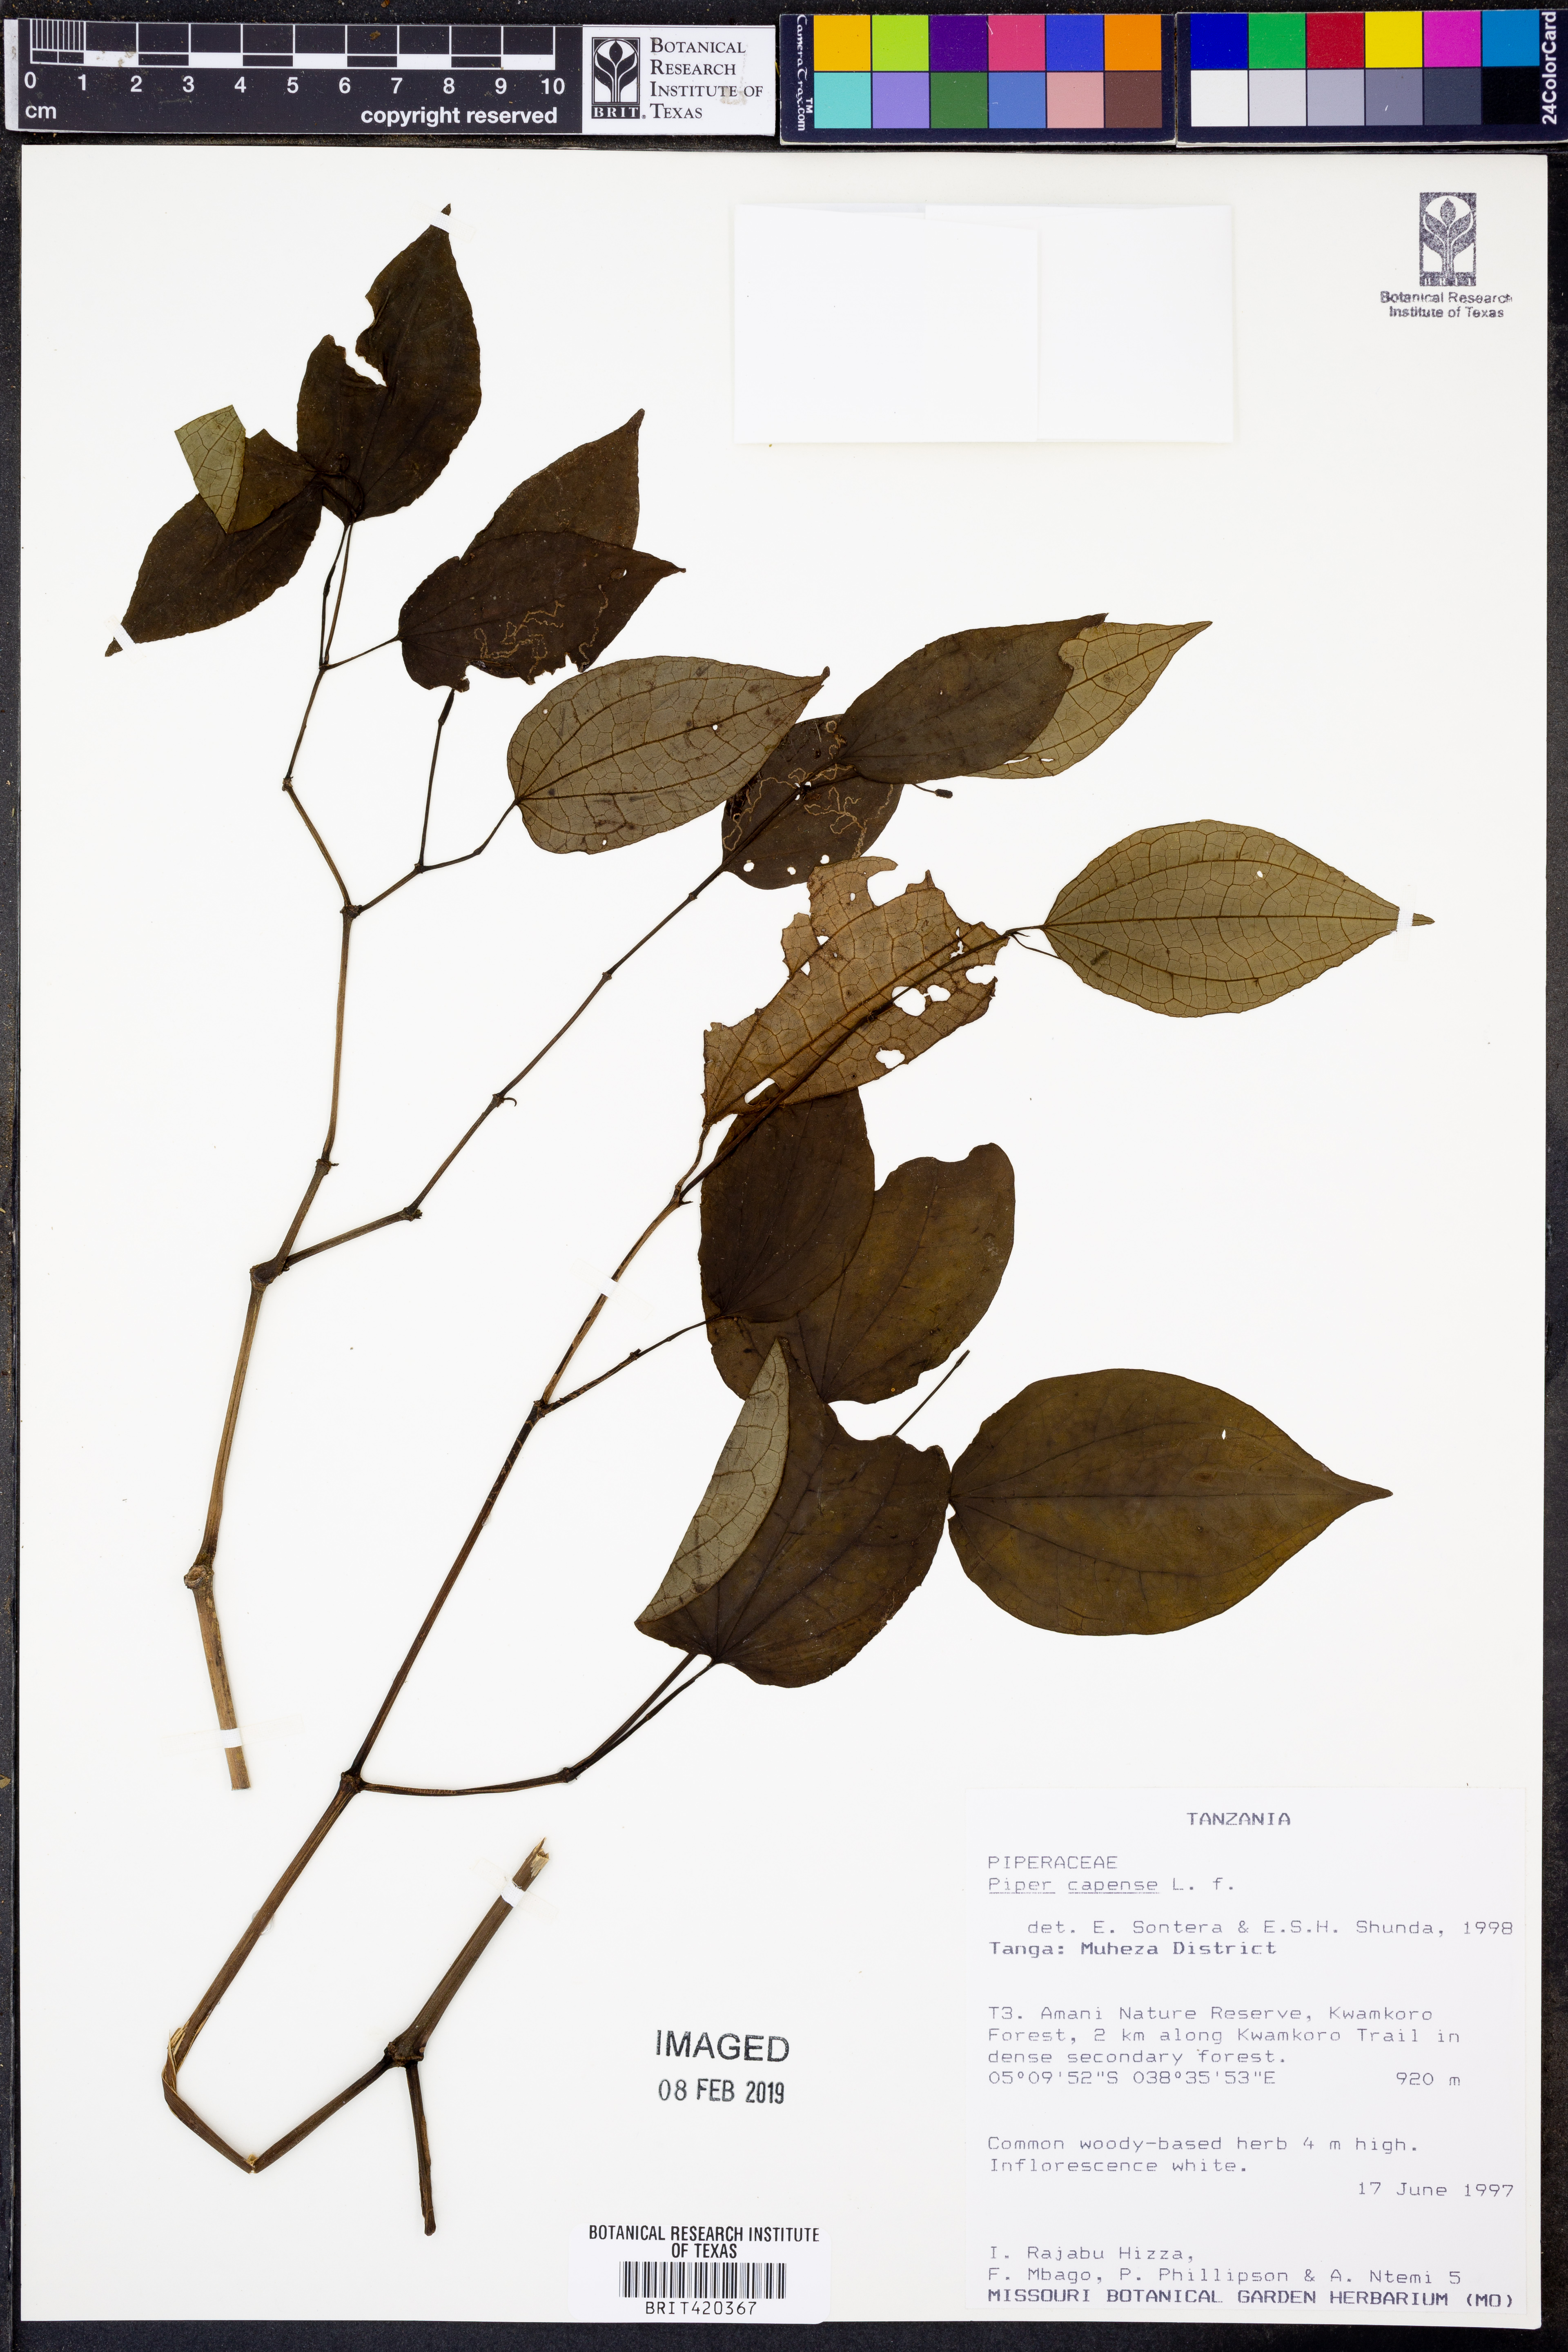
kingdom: Plantae
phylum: Tracheophyta
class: Magnoliopsida
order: Piperales
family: Piperaceae
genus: Piper
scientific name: Piper capense
